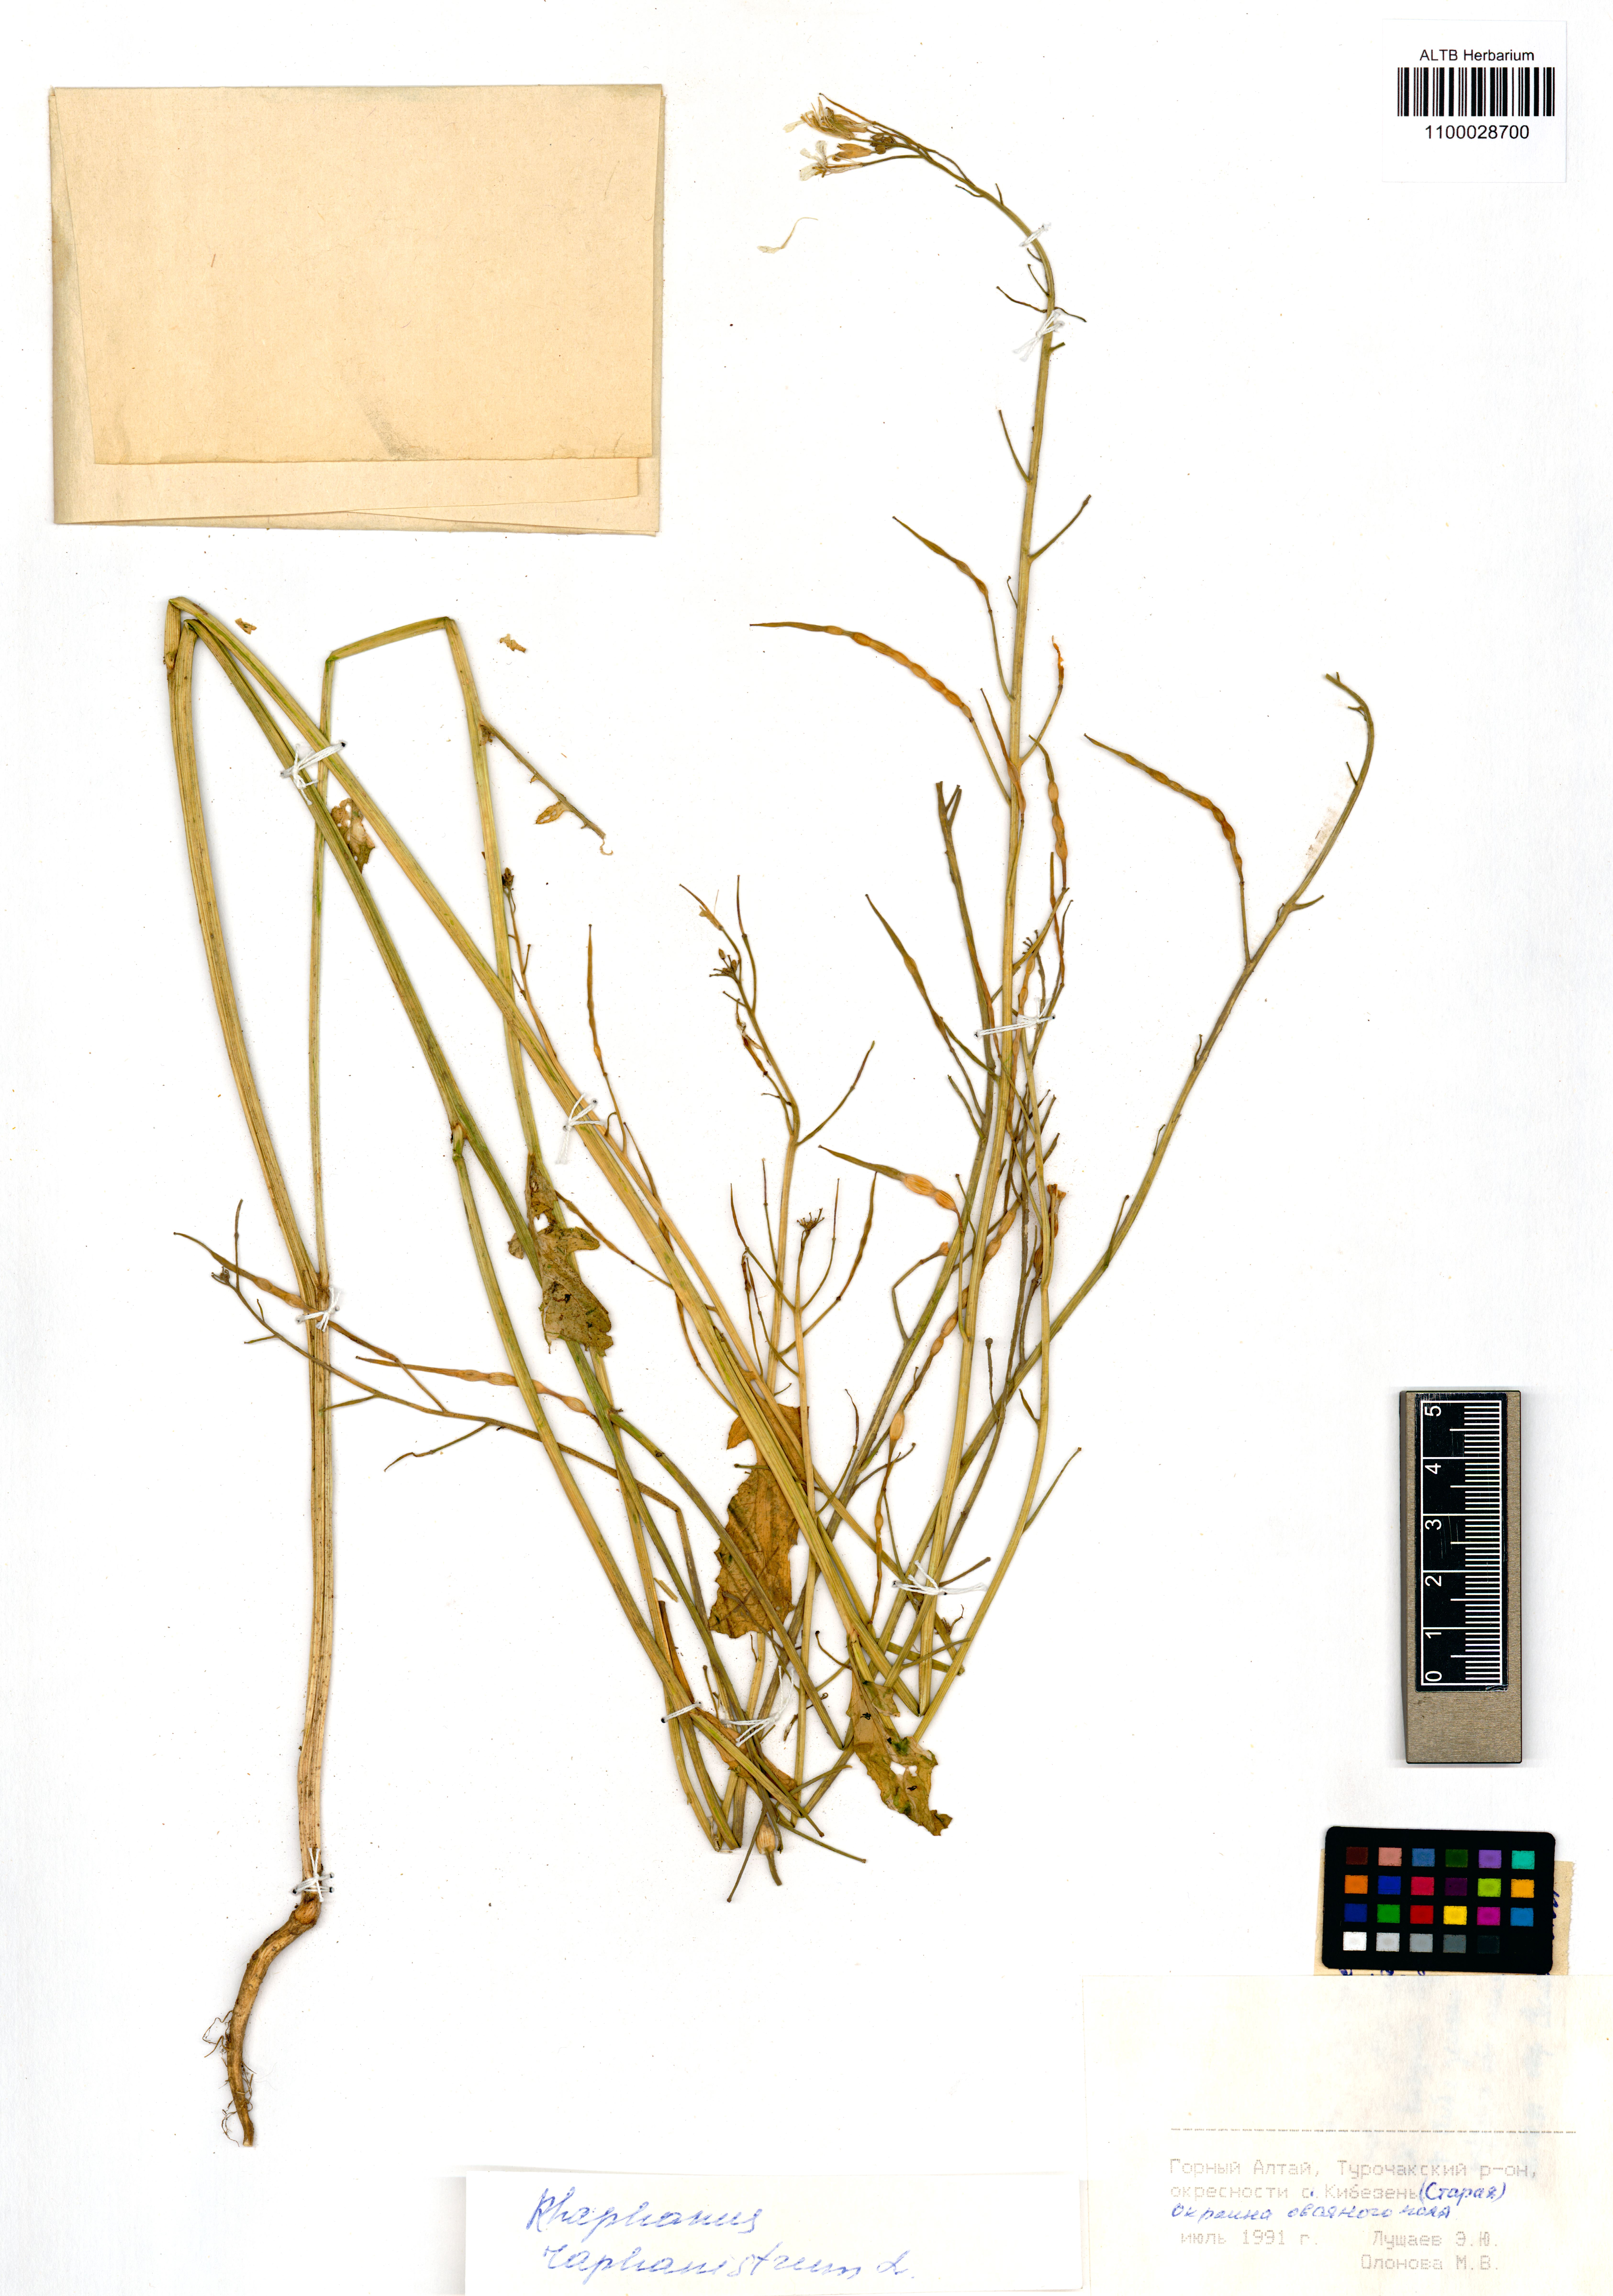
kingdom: Plantae
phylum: Tracheophyta
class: Magnoliopsida
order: Brassicales
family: Brassicaceae
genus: Raphanus
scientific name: Raphanus raphanistrum
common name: Wild radish
